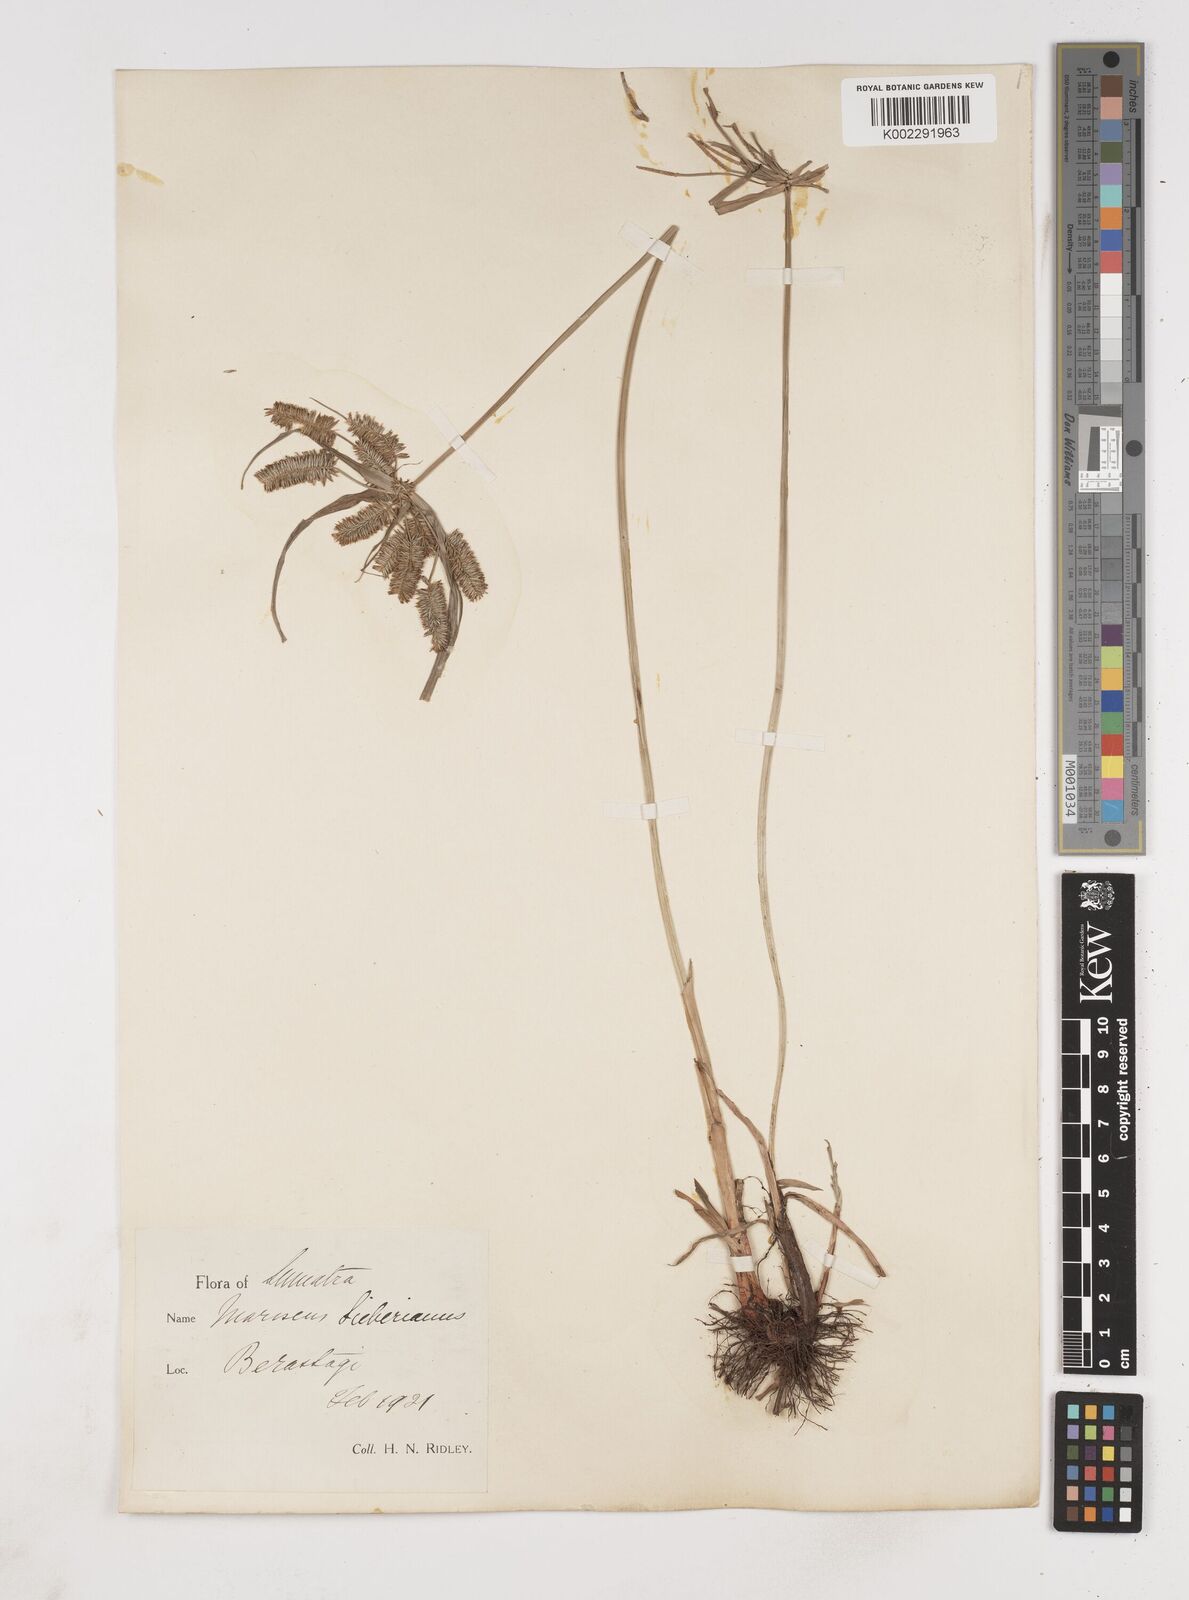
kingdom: Plantae
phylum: Tracheophyta
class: Liliopsida
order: Poales
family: Cyperaceae
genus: Cyperus
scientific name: Cyperus cyperoides
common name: Pacific island flat sedge
